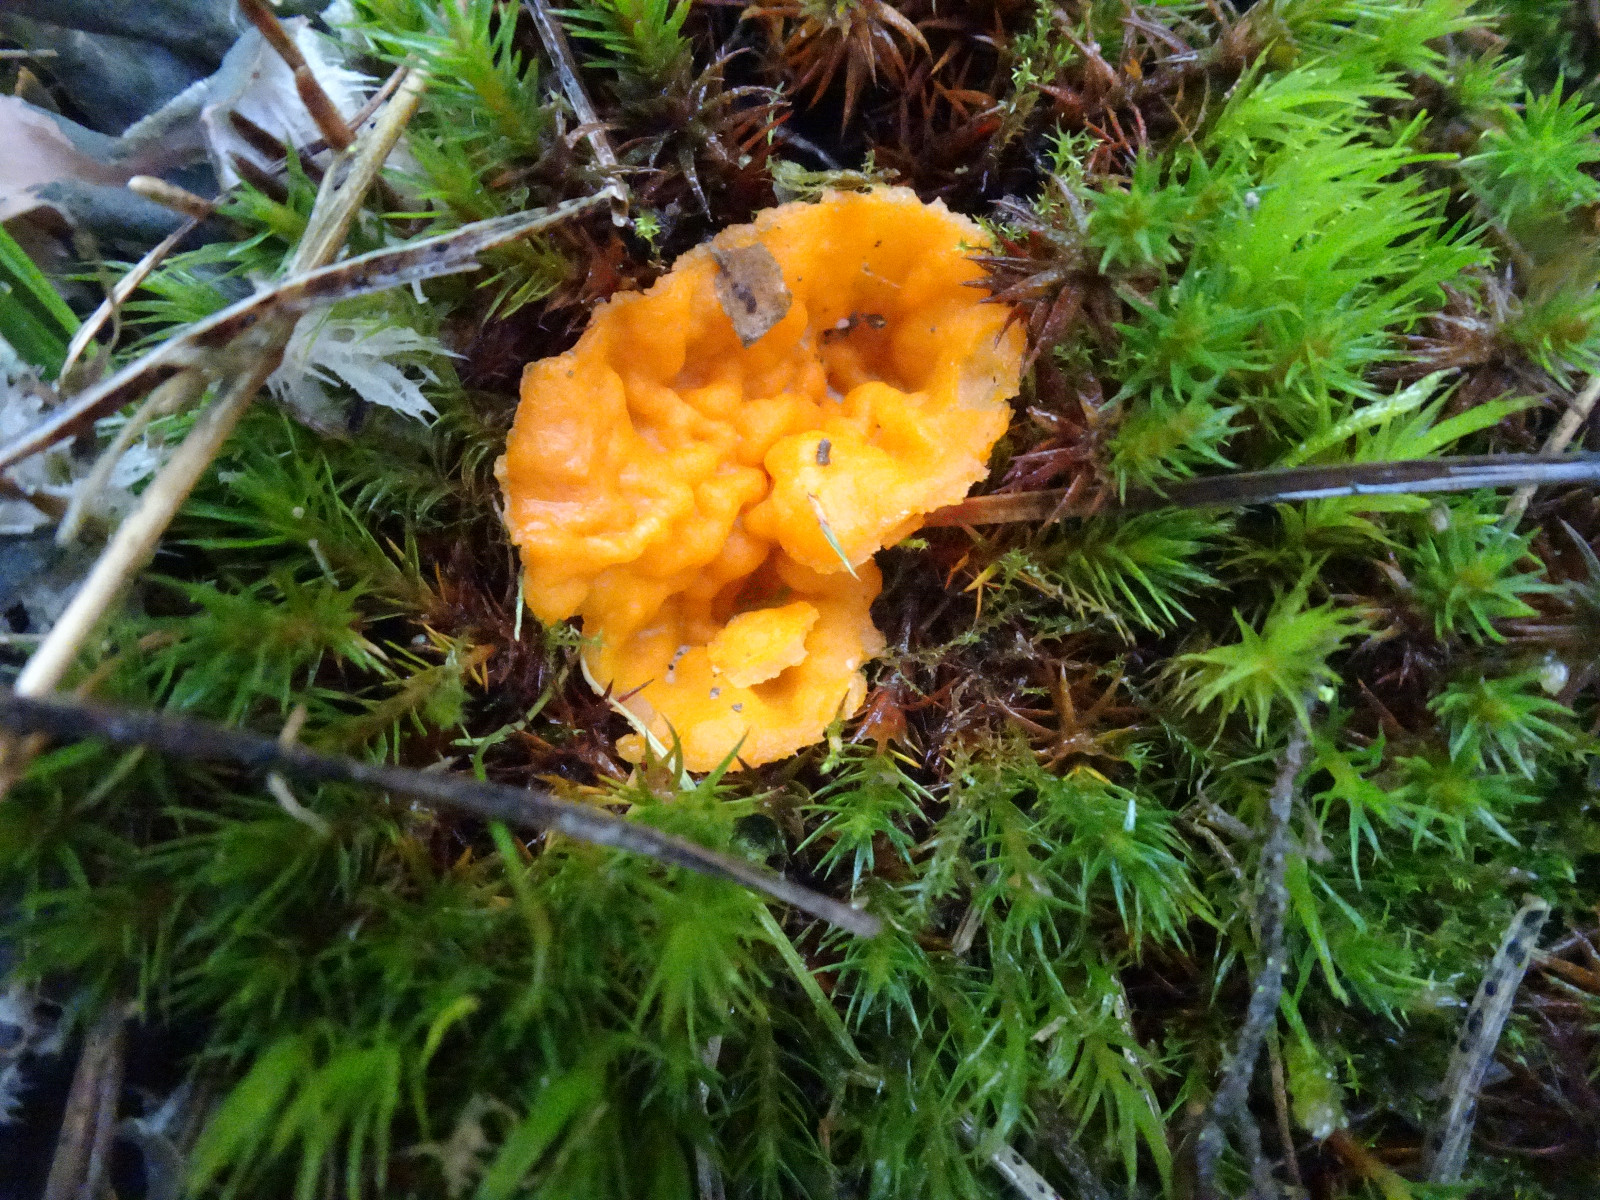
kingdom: Fungi
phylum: Ascomycota
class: Pezizomycetes
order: Pezizales
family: Pyronemataceae
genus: Neottiella
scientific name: Neottiella
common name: mosbæger
